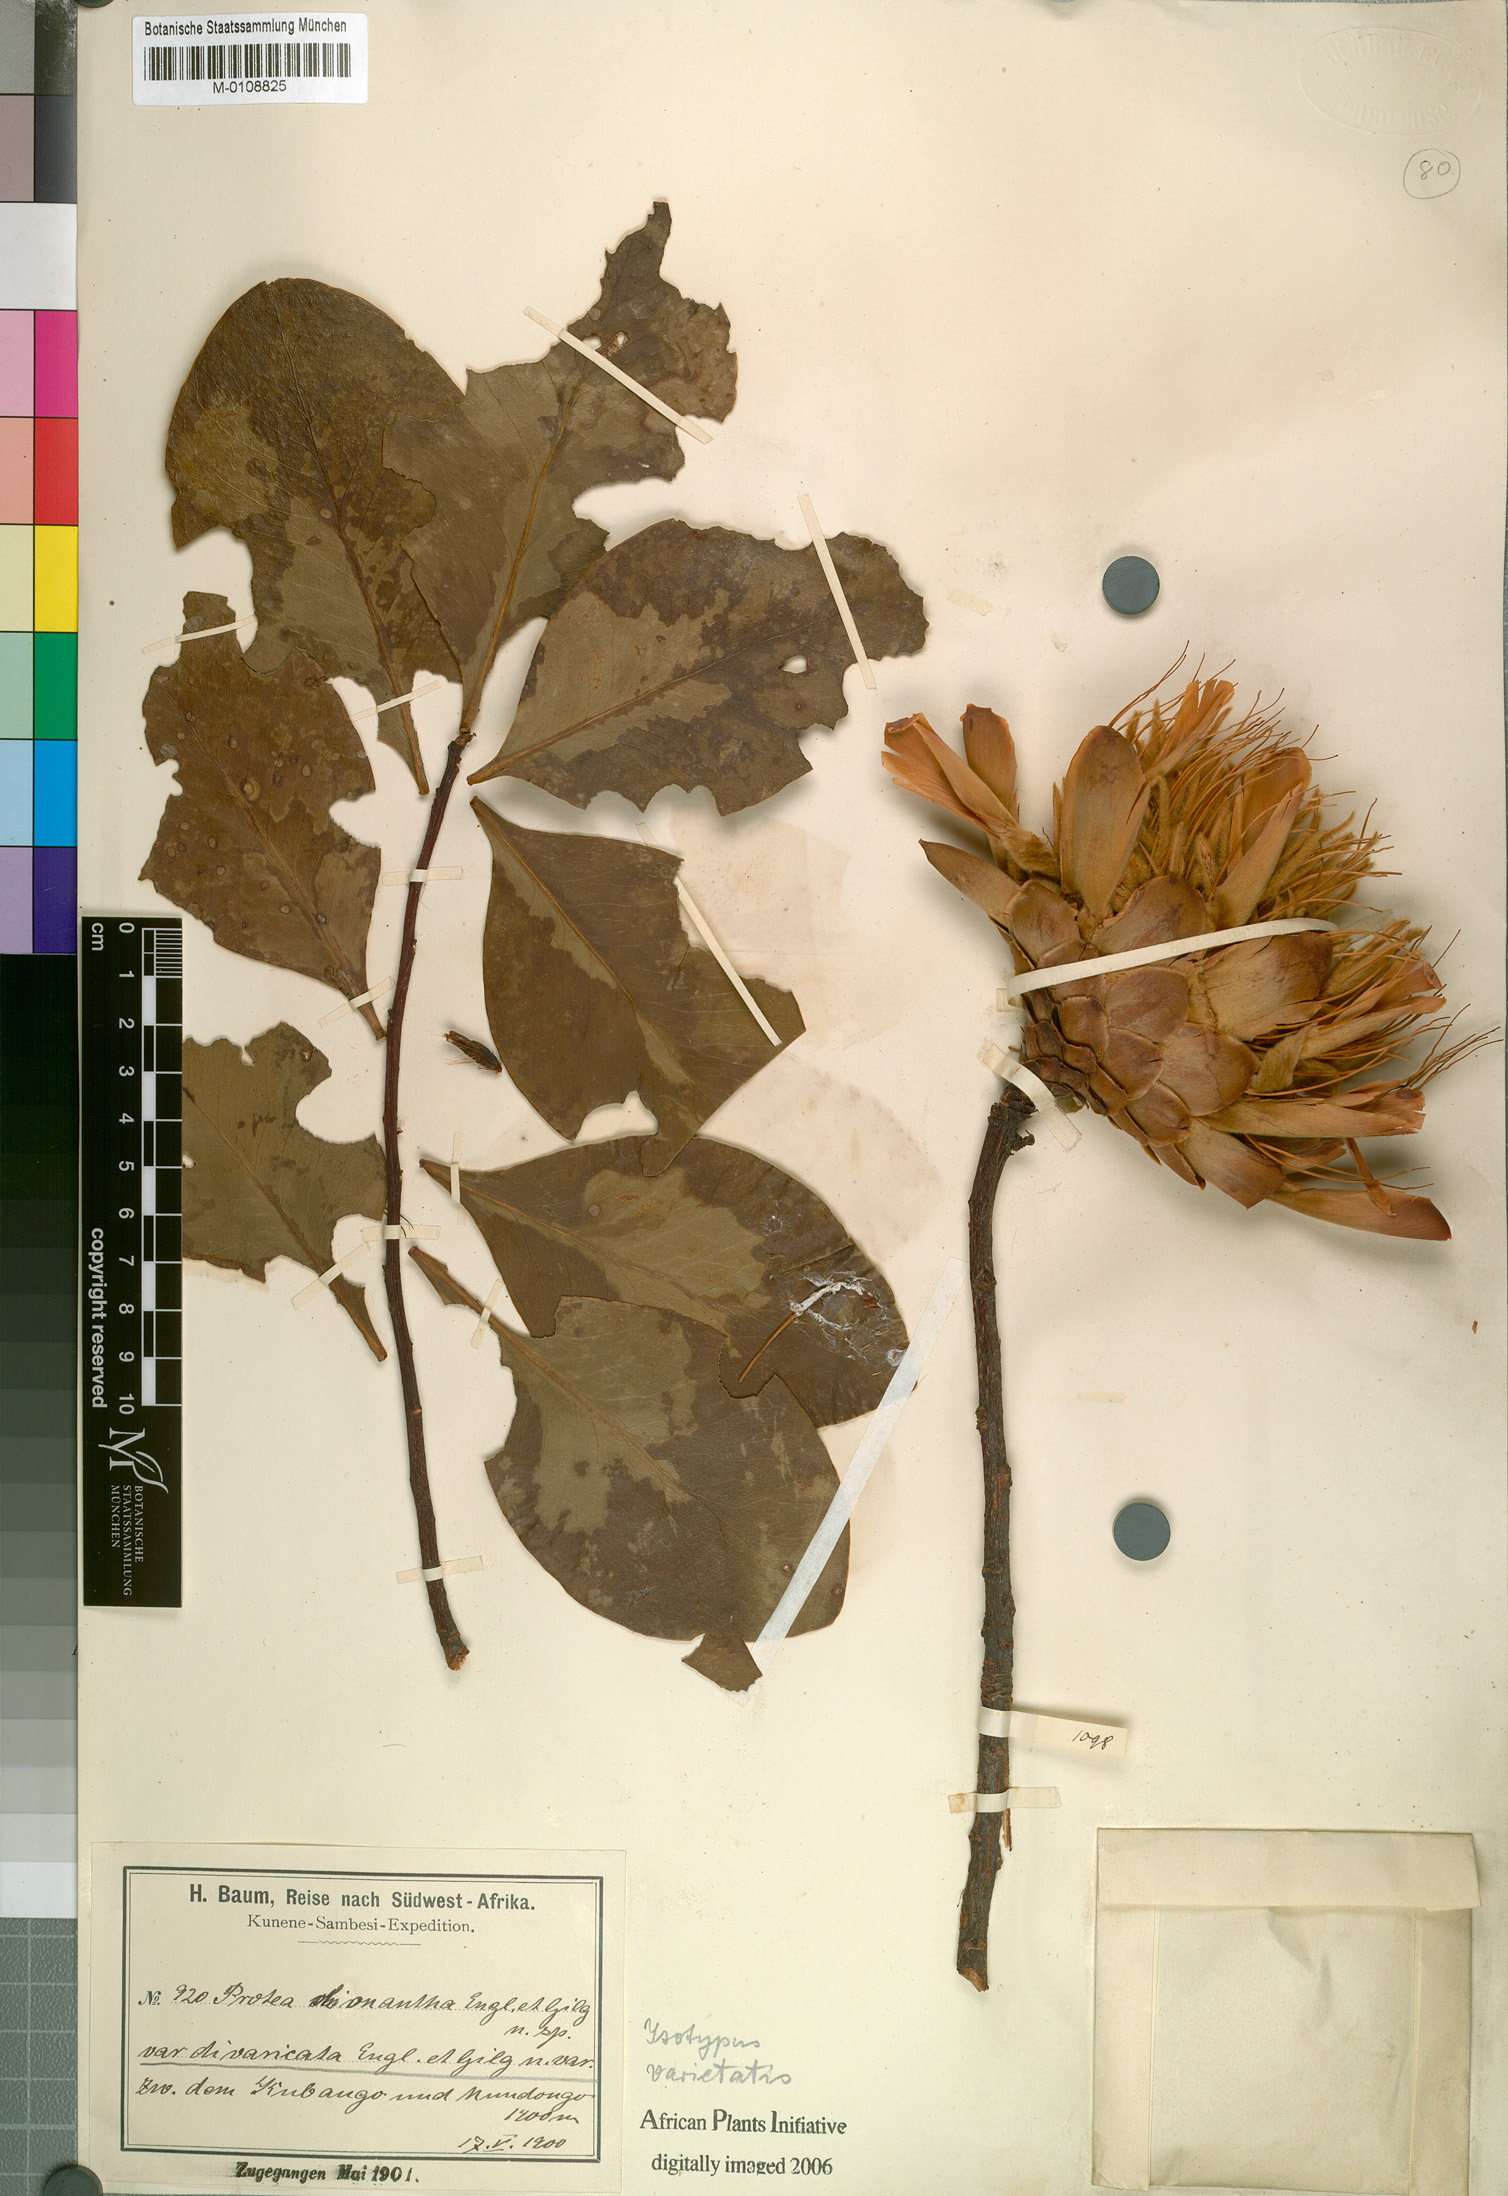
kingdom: Plantae
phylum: Tracheophyta
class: Magnoliopsida
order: Proteales
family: Proteaceae
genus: Protea
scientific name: Protea angolensis
